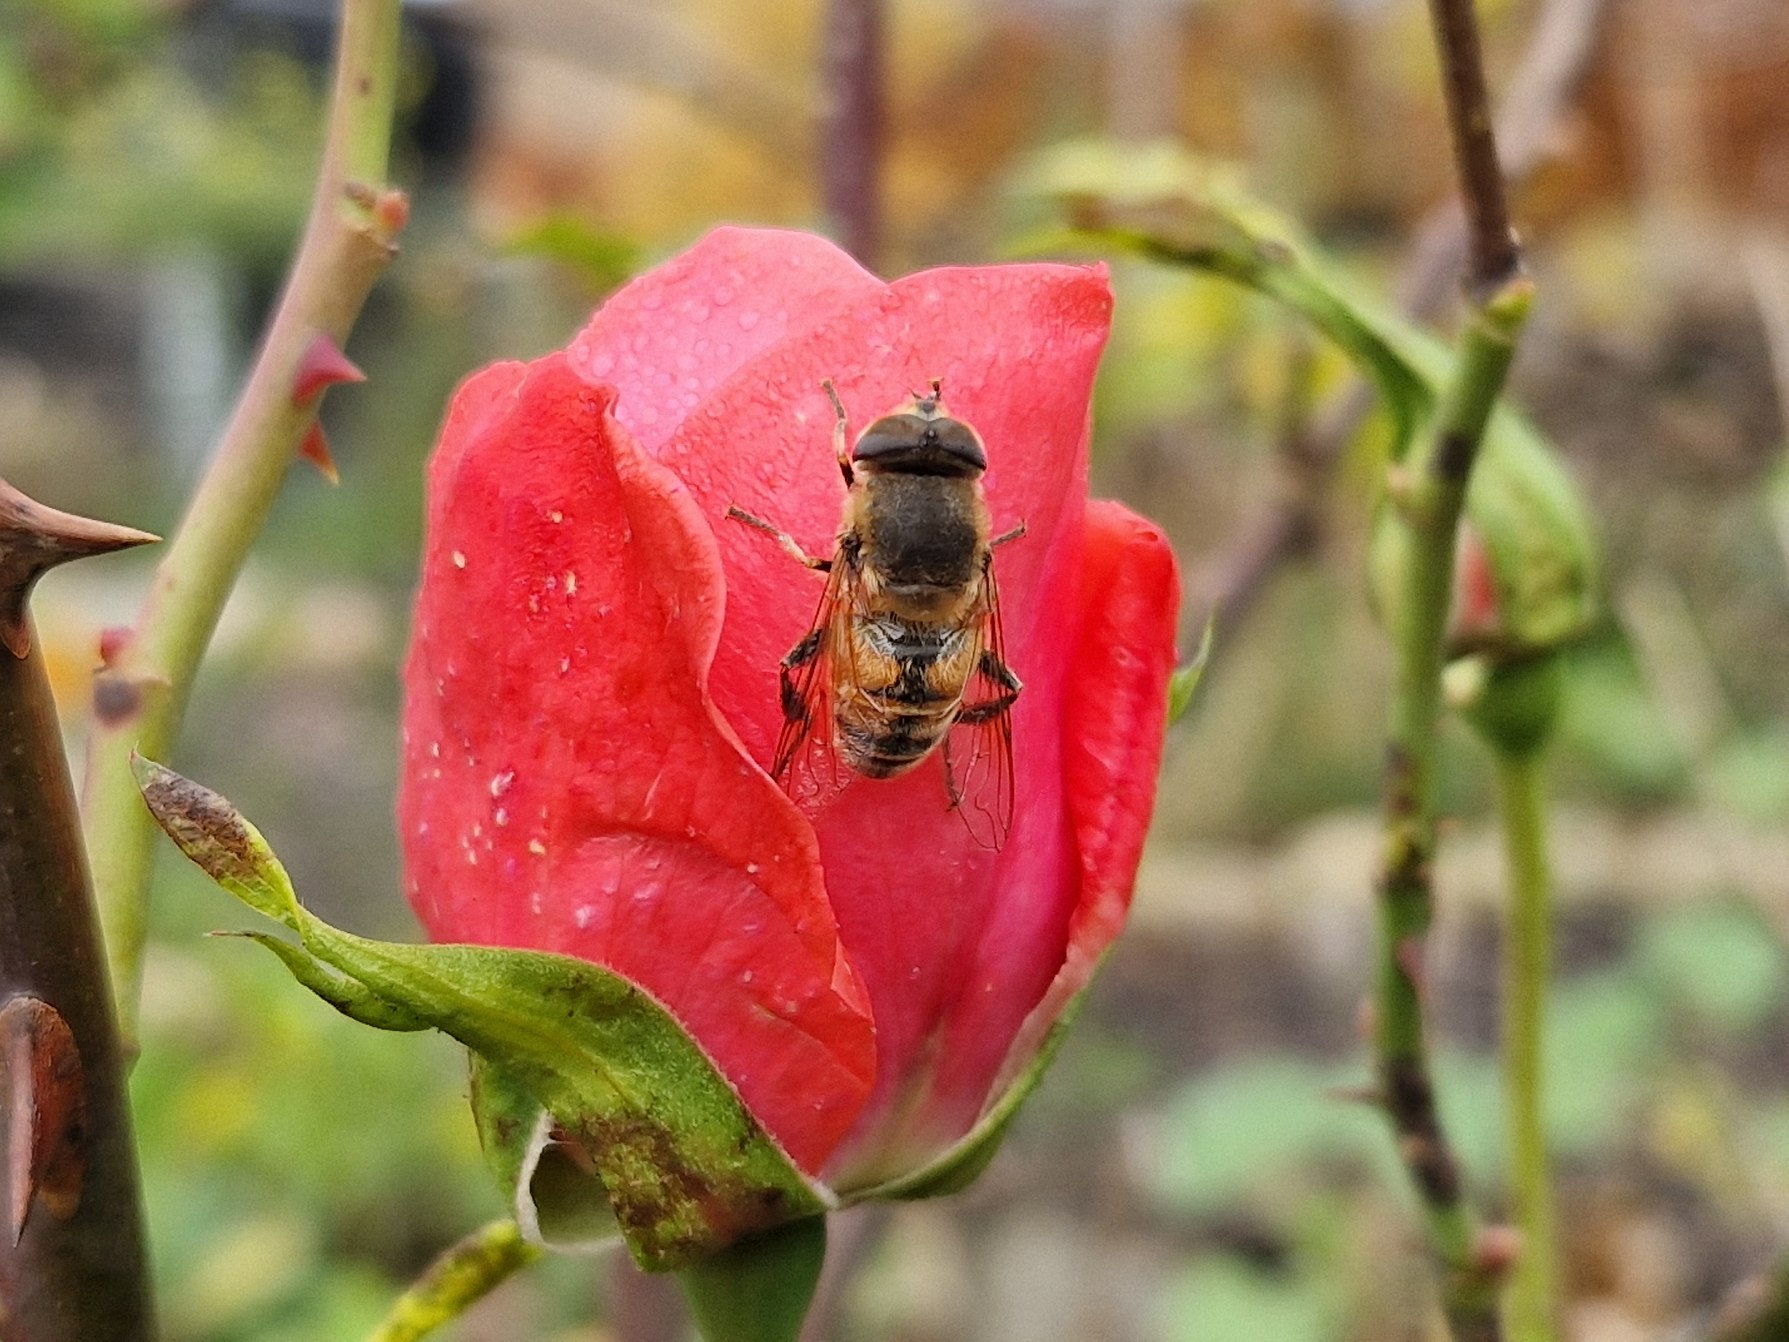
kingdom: Animalia
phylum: Arthropoda
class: Insecta
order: Diptera
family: Syrphidae
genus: Eristalis
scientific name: Eristalis tenax
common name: Droneflue
